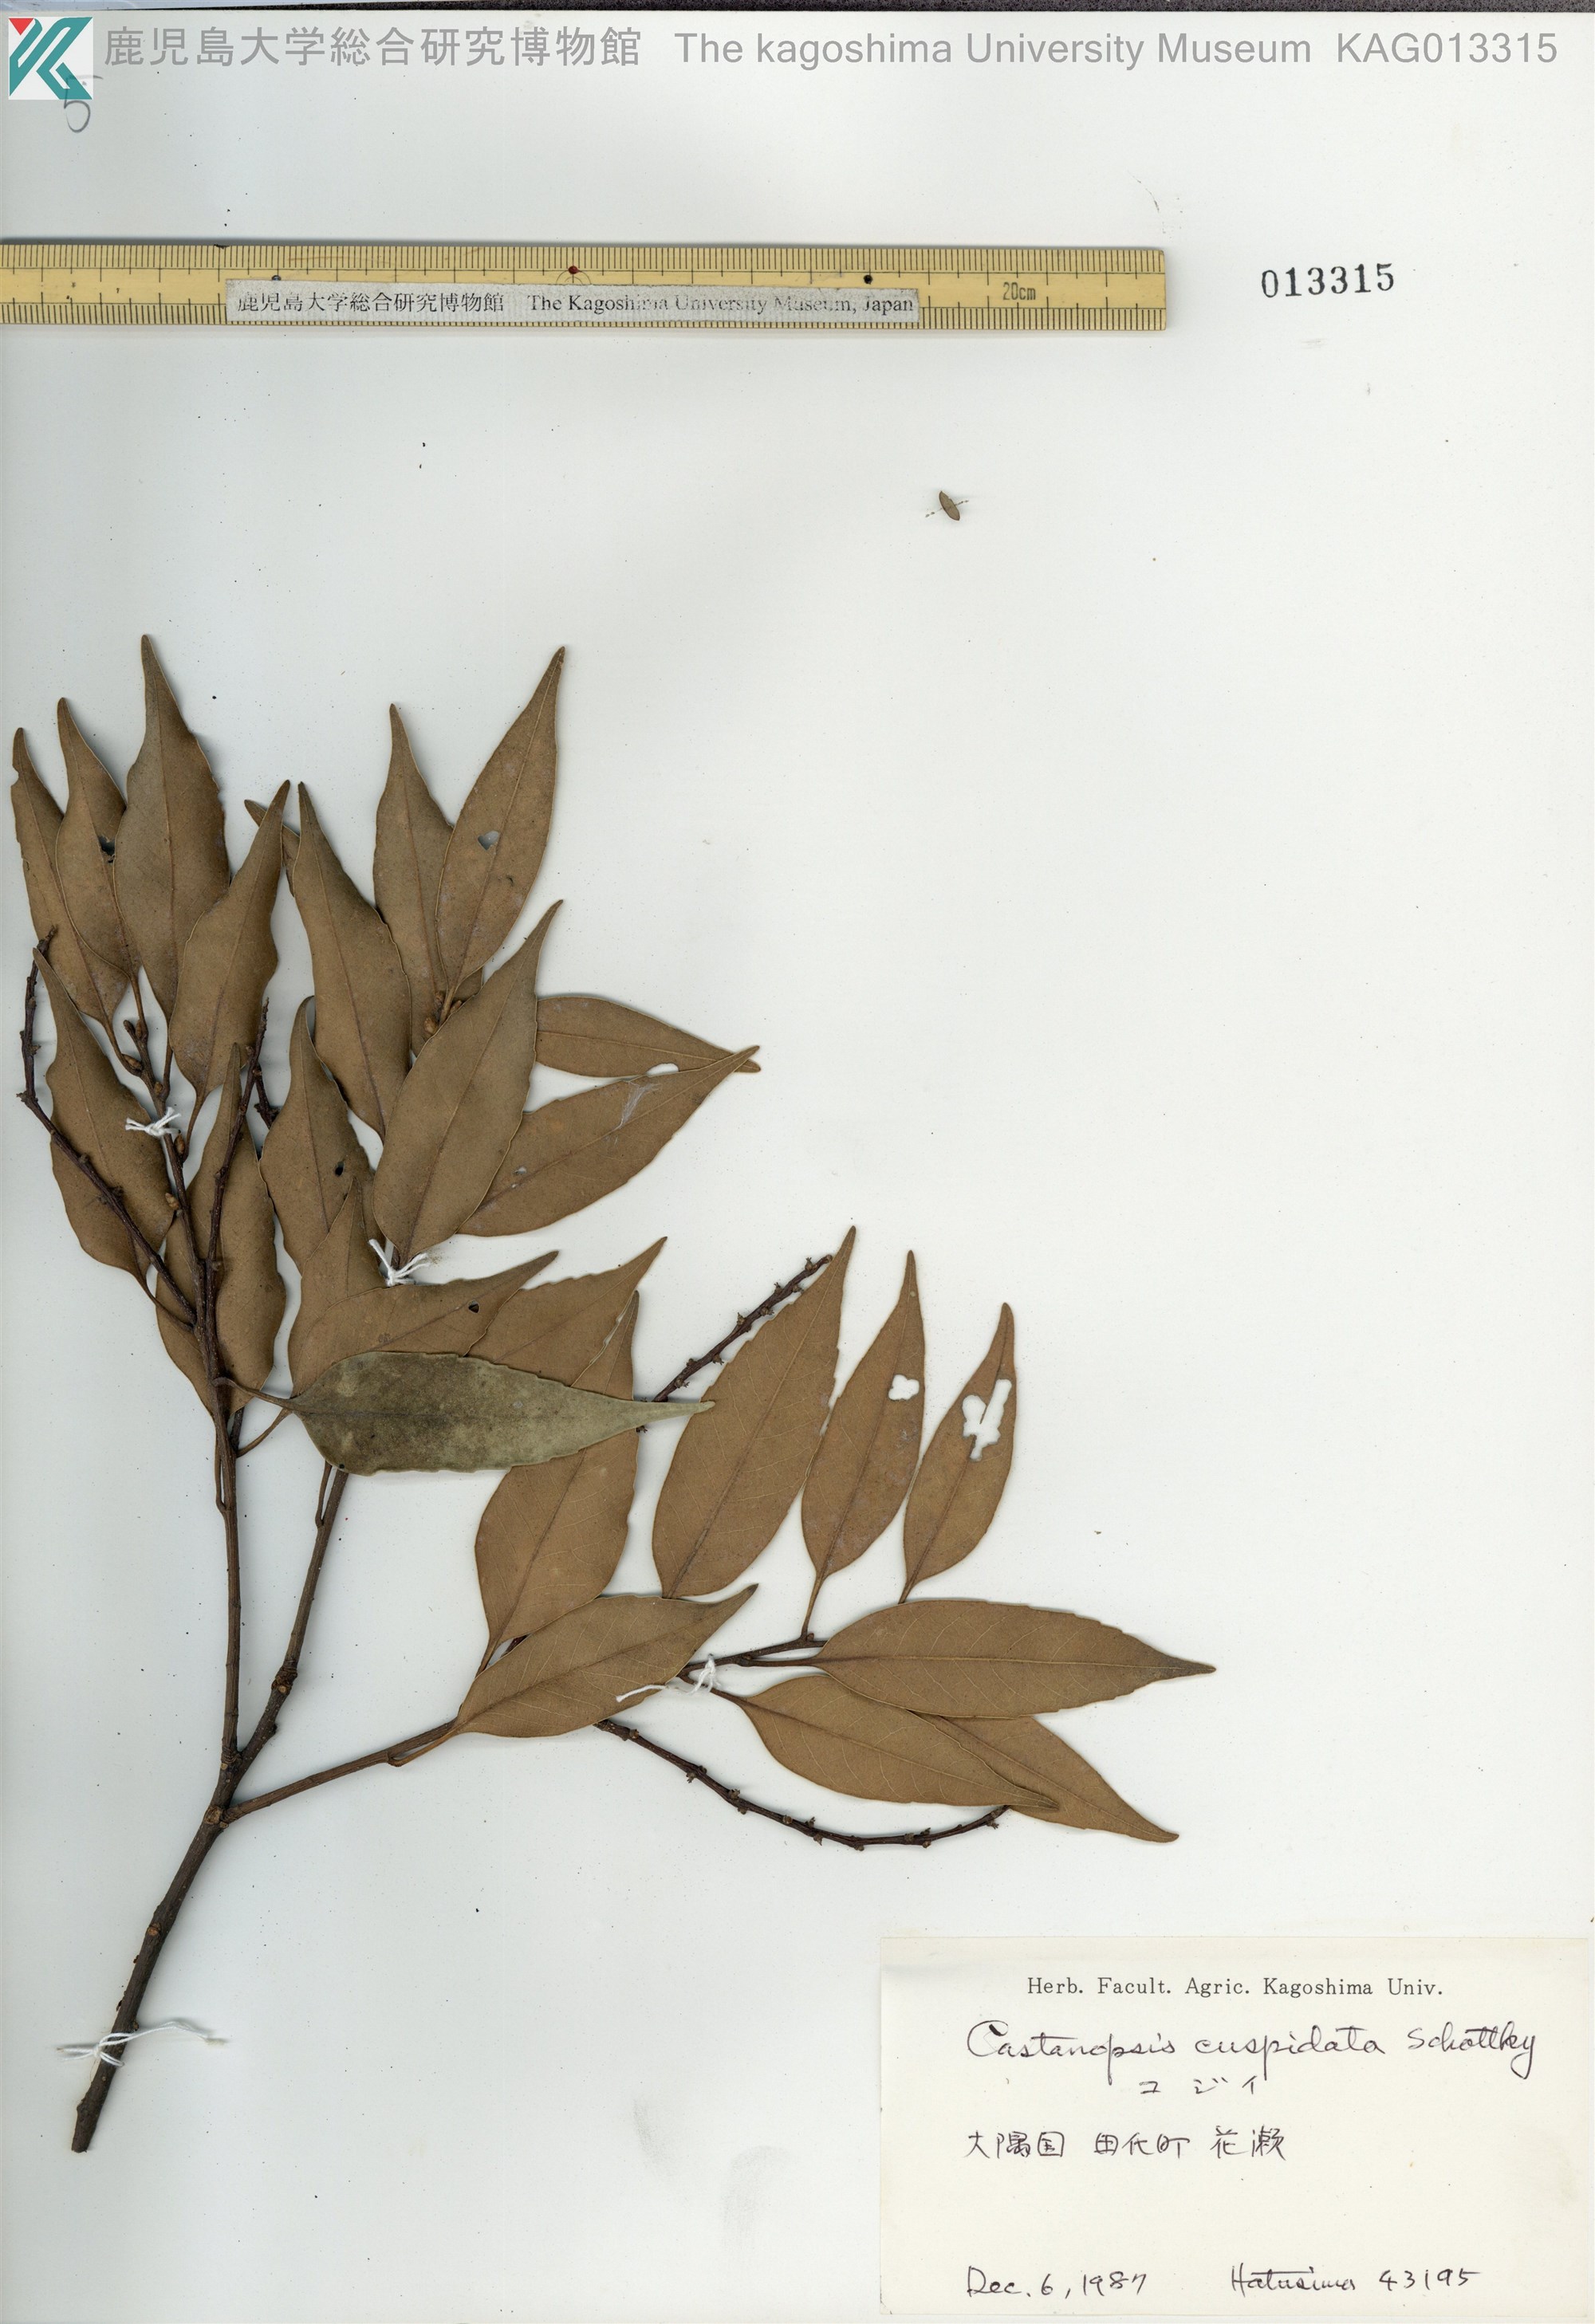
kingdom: Plantae
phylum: Tracheophyta
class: Magnoliopsida
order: Fagales
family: Fagaceae
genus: Castanopsis
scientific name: Castanopsis cuspidata
